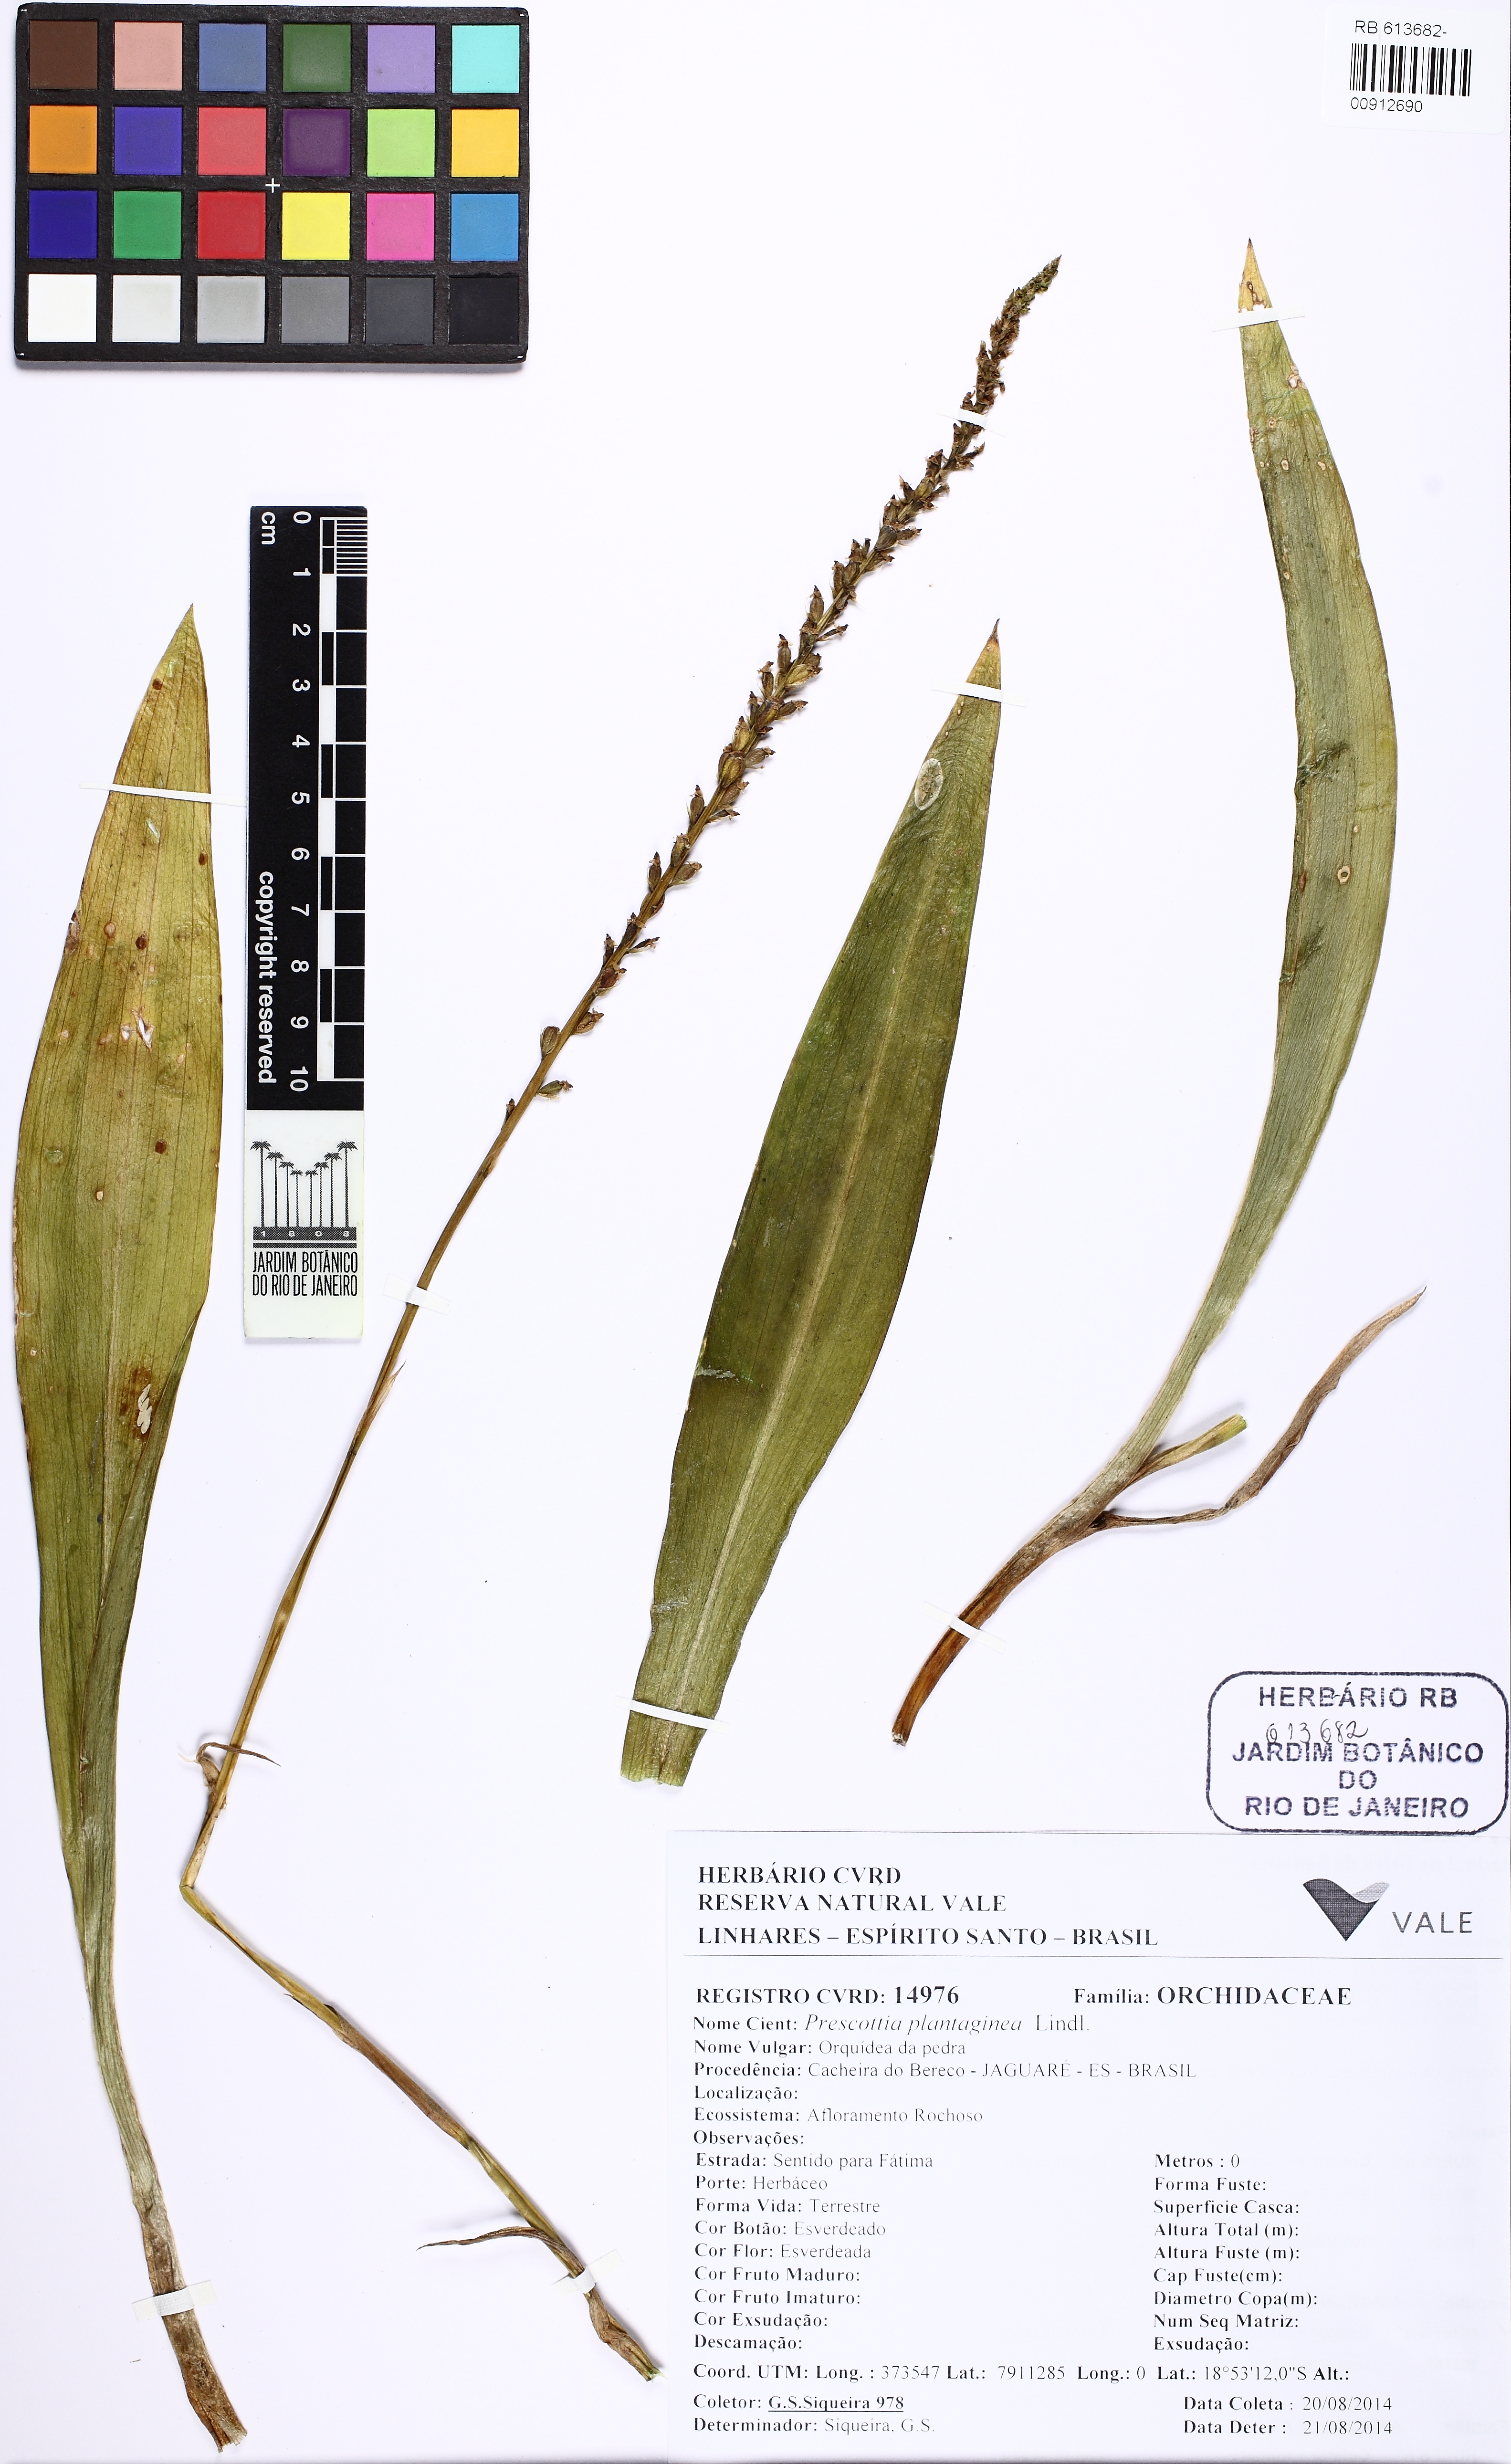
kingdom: Plantae
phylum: Tracheophyta
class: Liliopsida
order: Asparagales
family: Orchidaceae
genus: Prescottia
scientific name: Prescottia plantaginea
